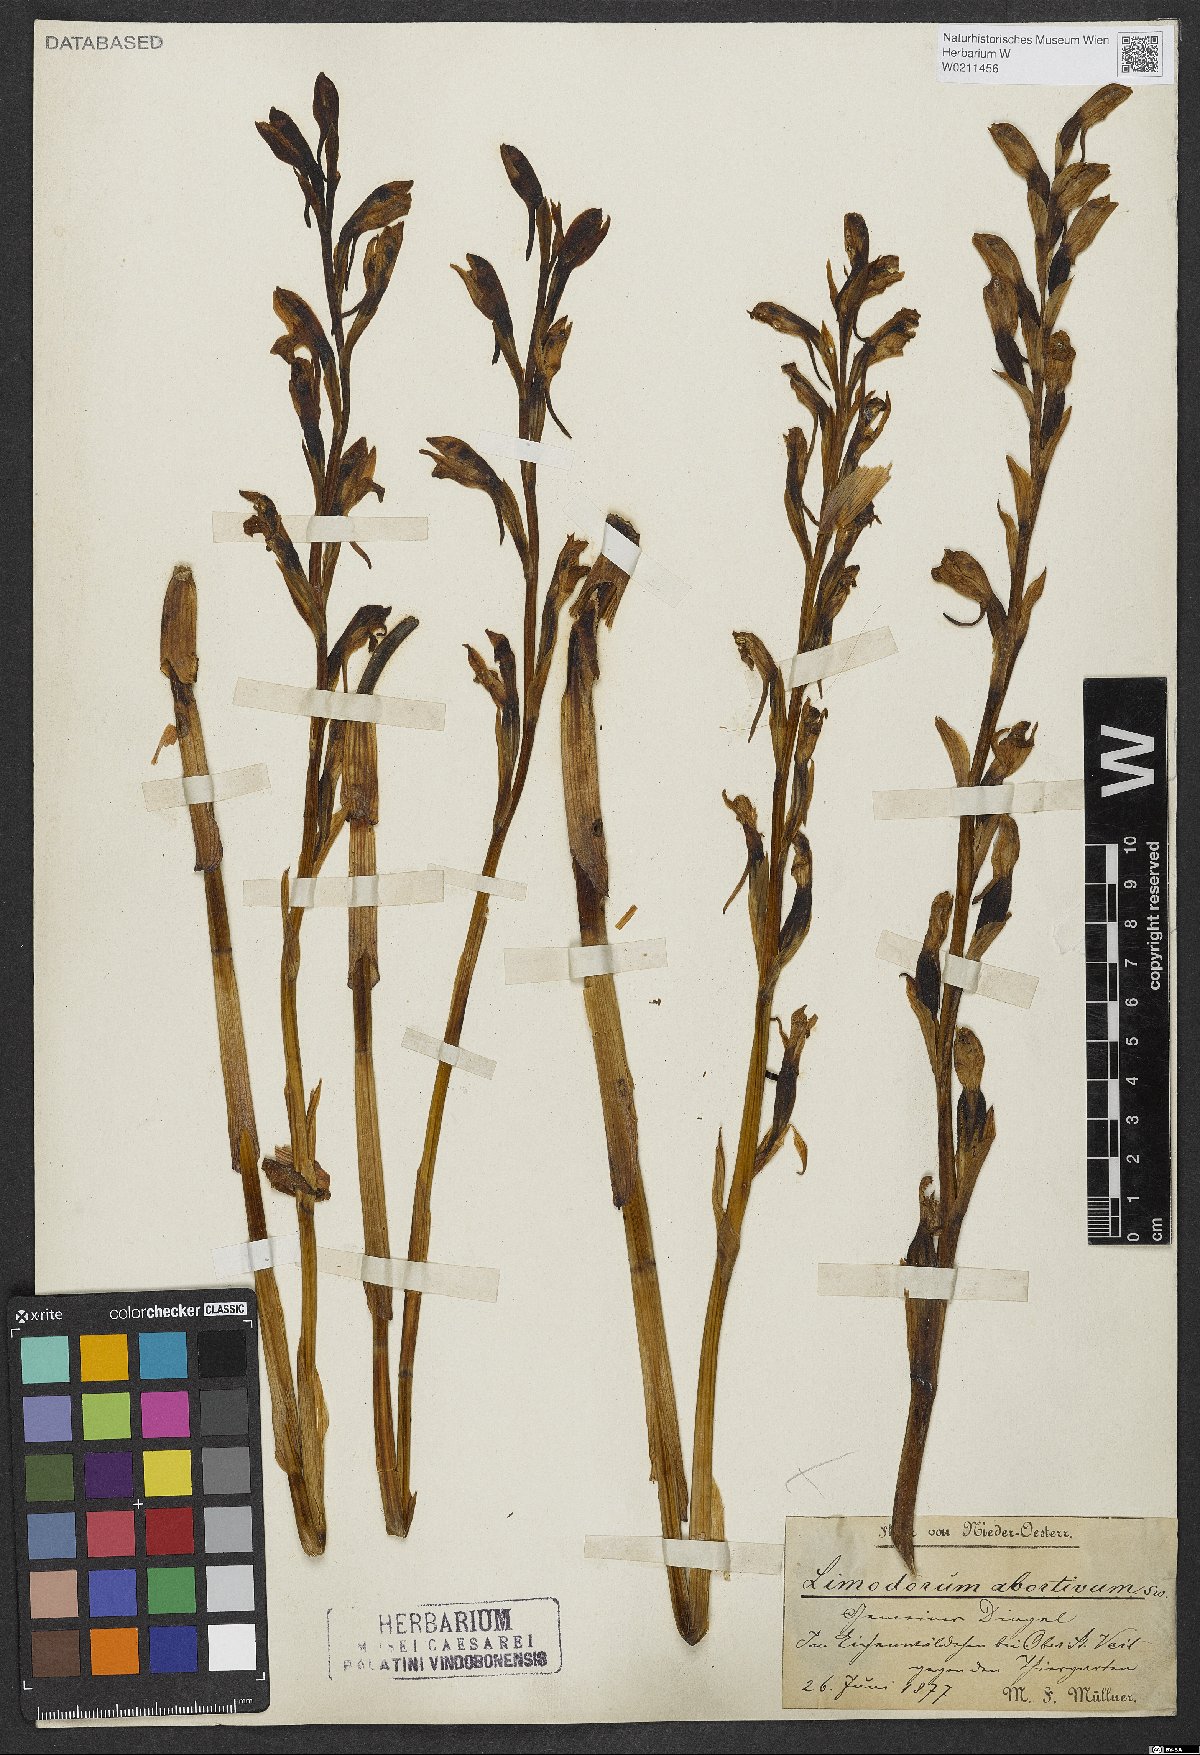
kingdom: Plantae
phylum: Tracheophyta
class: Liliopsida
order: Asparagales
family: Orchidaceae
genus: Limodorum
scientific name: Limodorum abortivum
